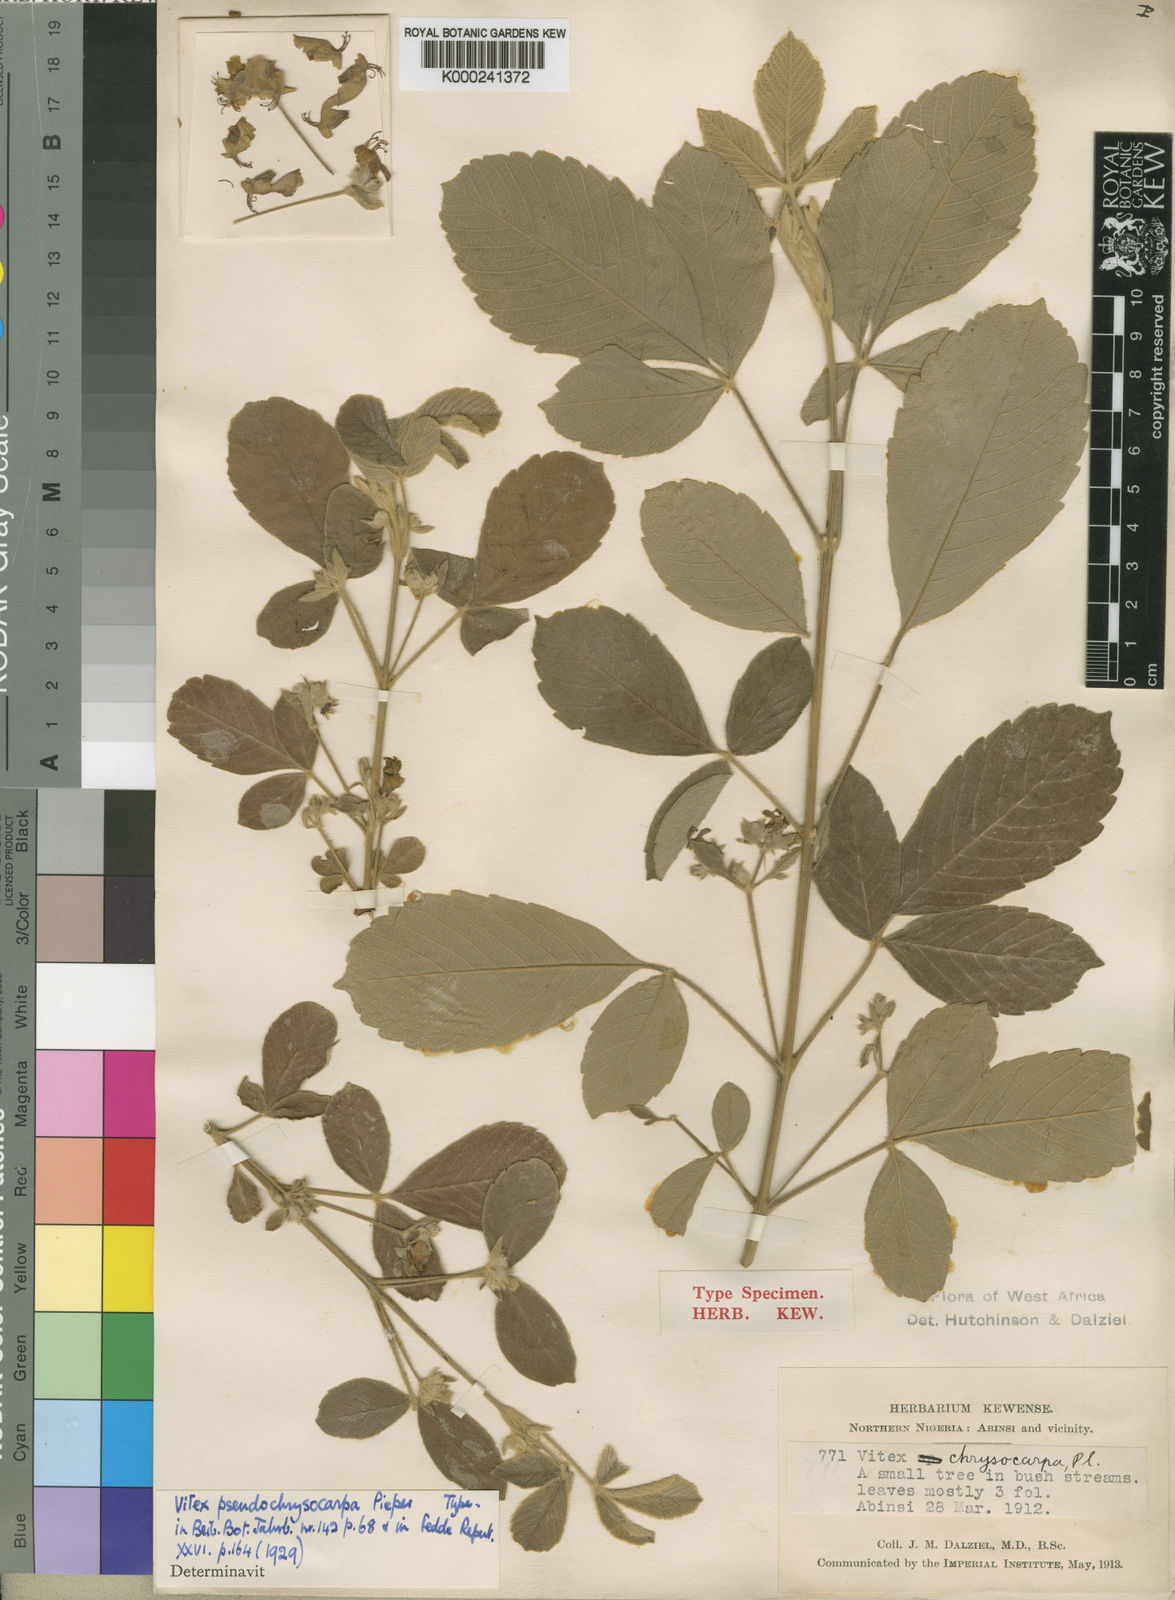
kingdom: Plantae
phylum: Tracheophyta
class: Magnoliopsida
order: Lamiales
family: Lamiaceae
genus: Vitex
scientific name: Vitex
